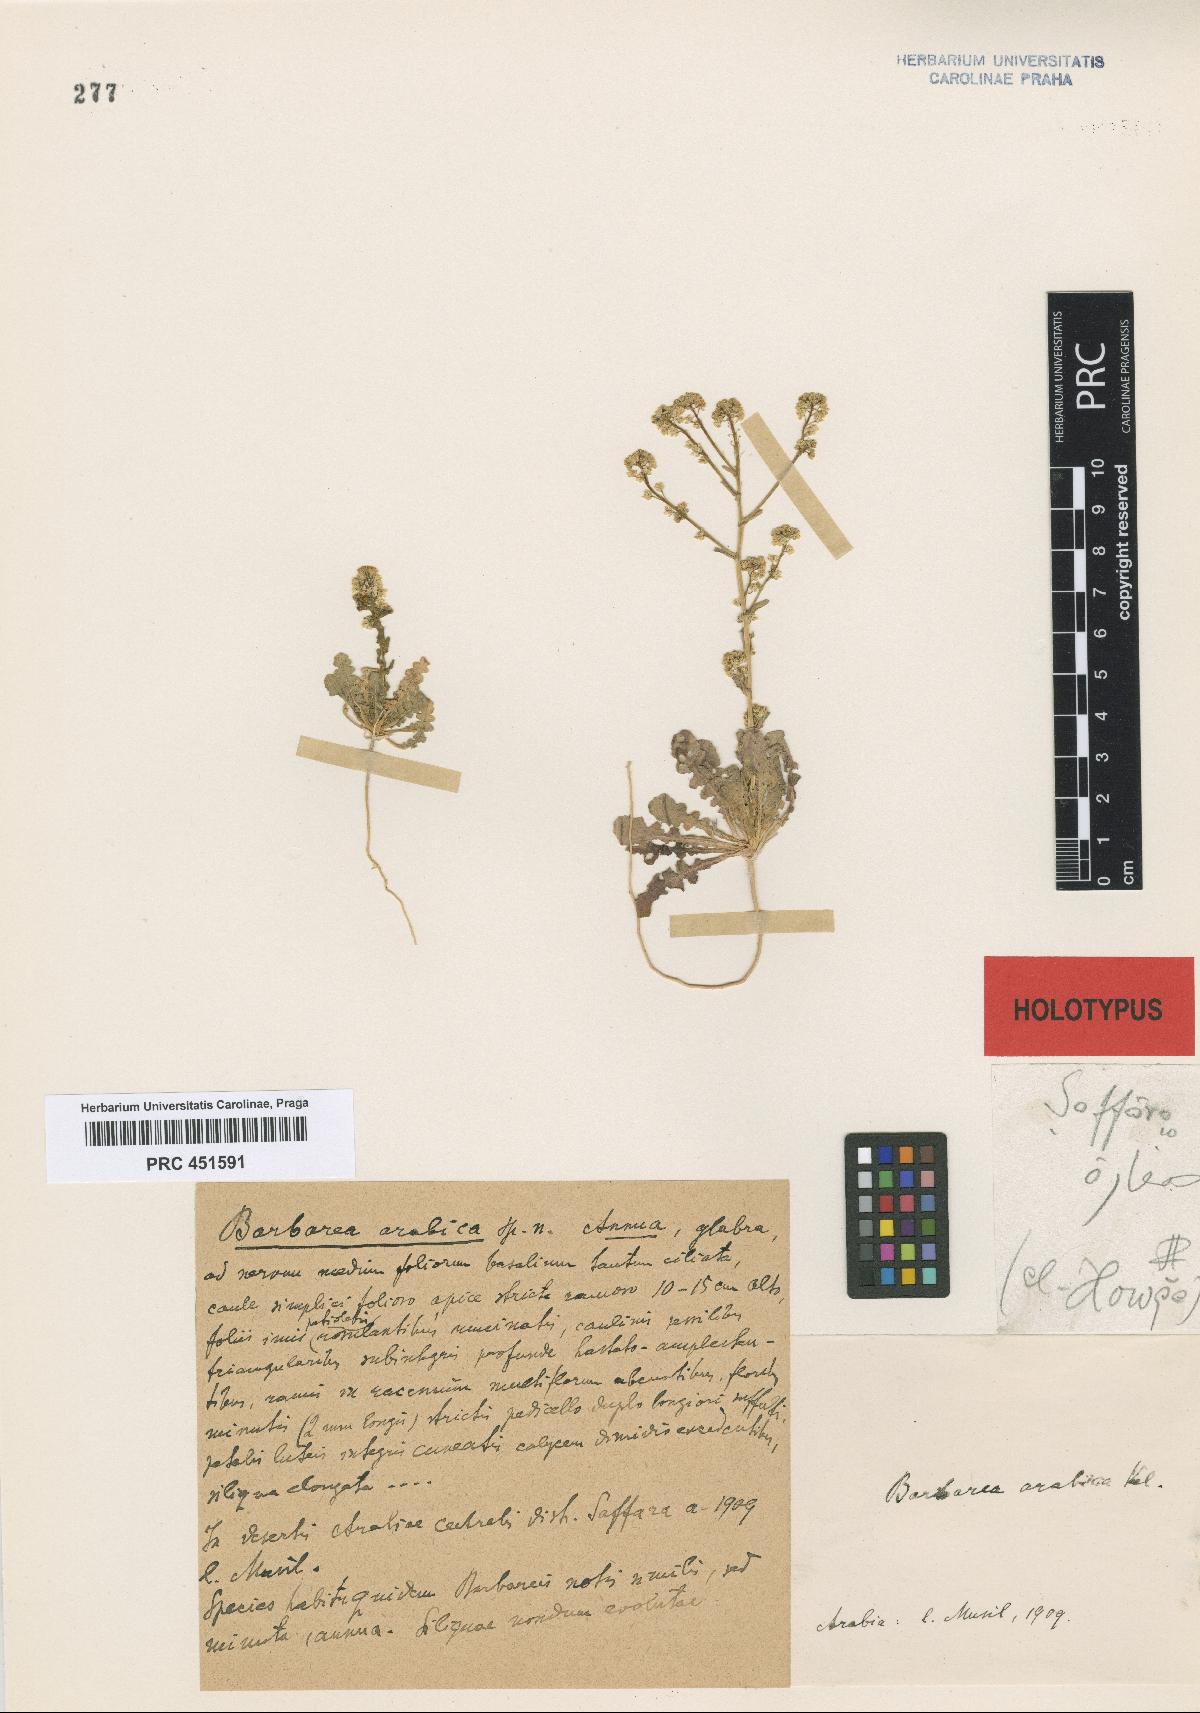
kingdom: Plantae
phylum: Tracheophyta
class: Magnoliopsida
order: Brassicales
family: Brassicaceae
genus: Barbarea
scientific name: Barbarea arabica
